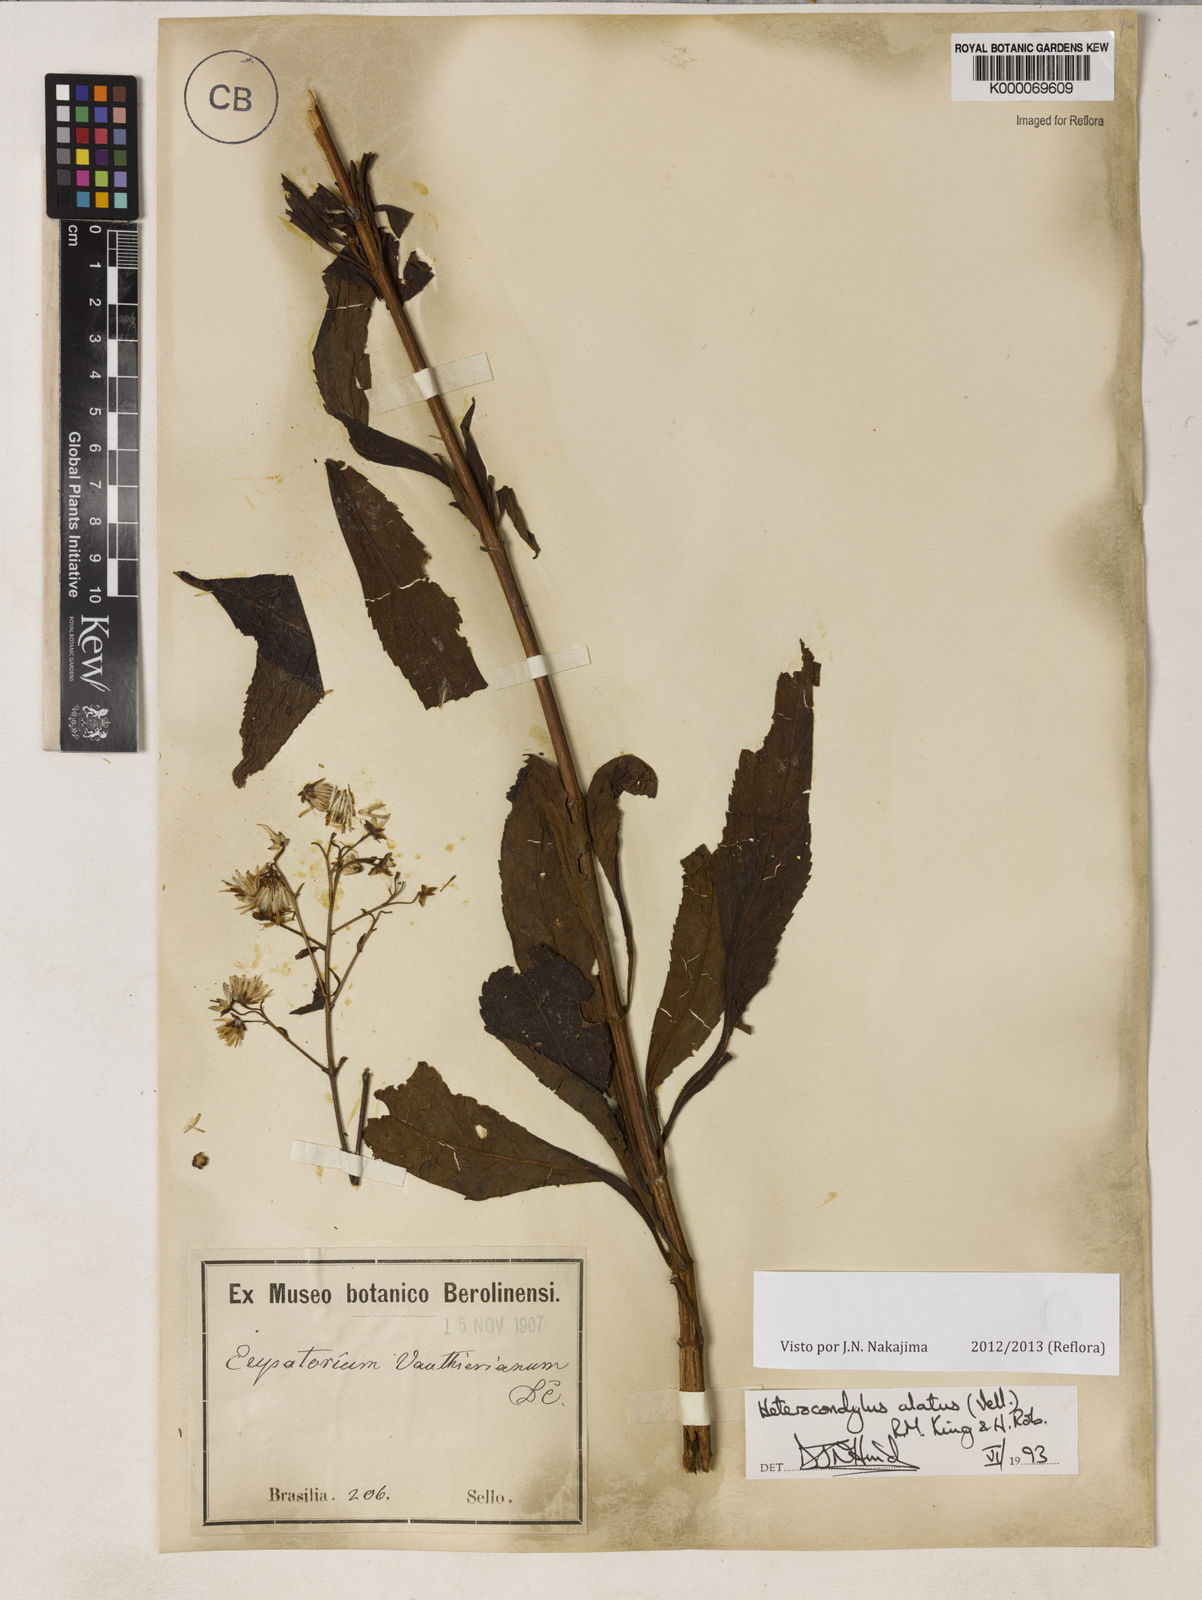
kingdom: Plantae
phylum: Tracheophyta
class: Magnoliopsida
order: Asterales
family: Asteraceae
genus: Heterocondylus
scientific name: Heterocondylus alatus
